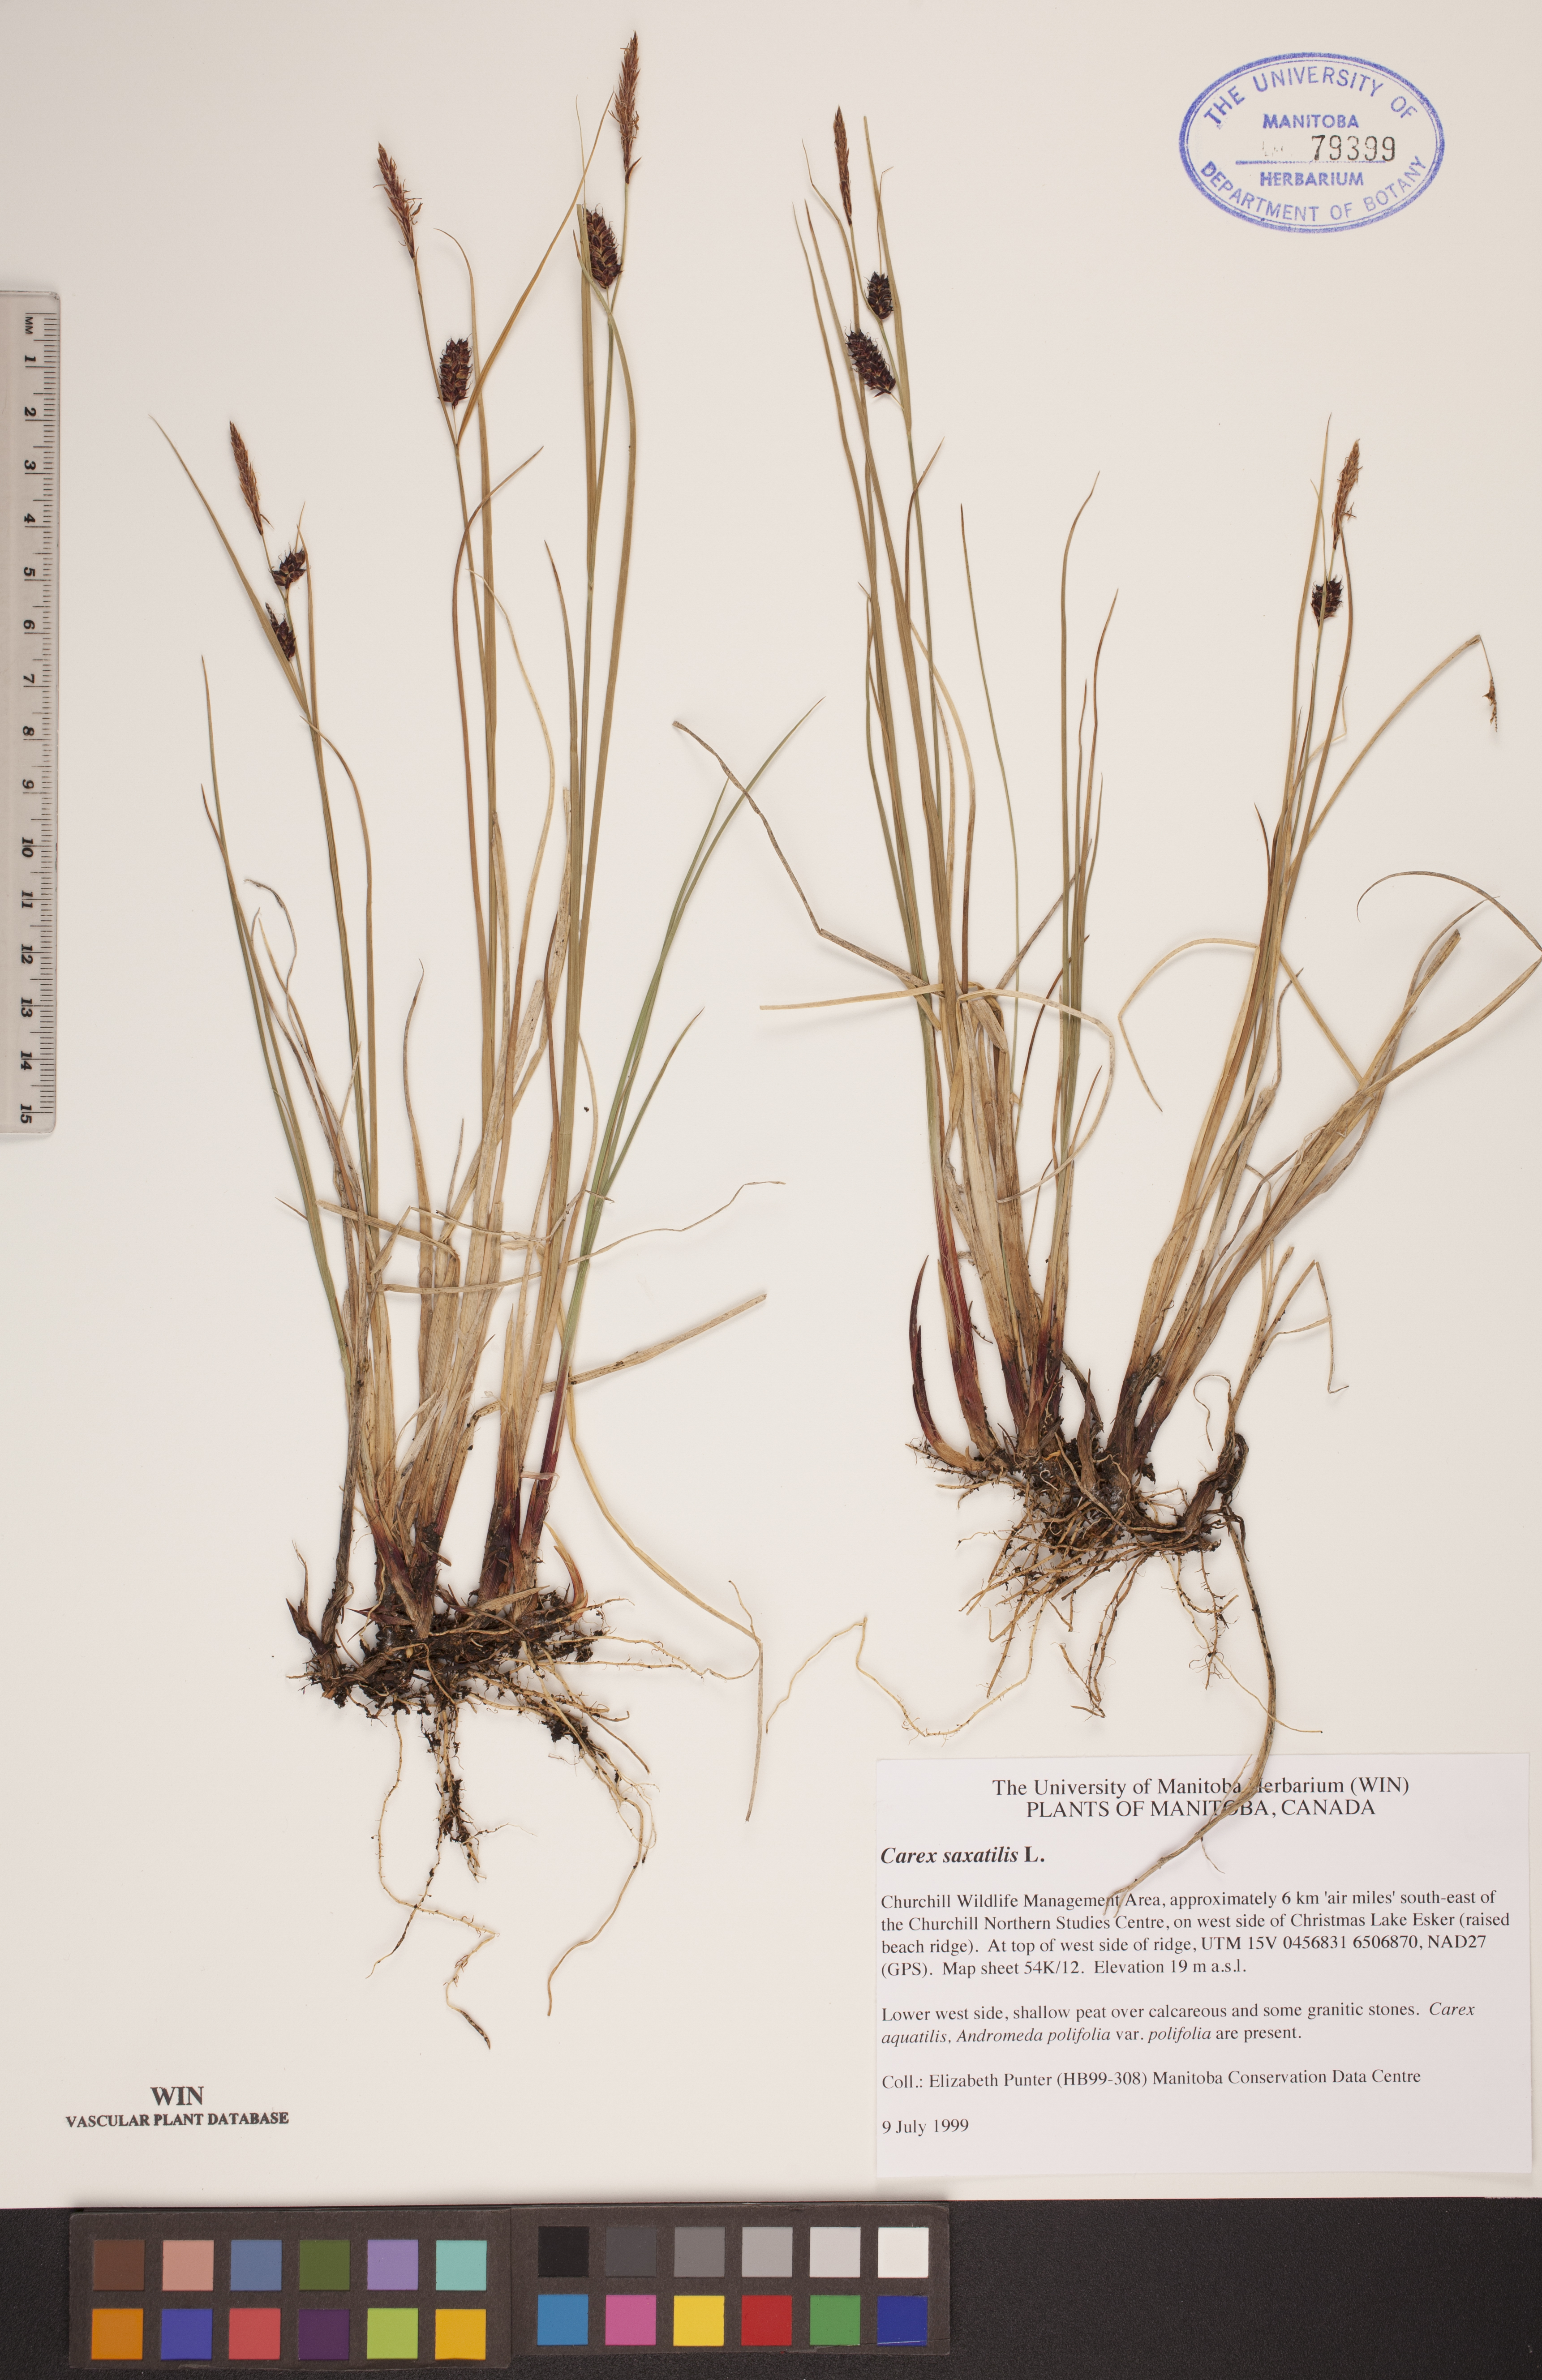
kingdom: Plantae
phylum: Tracheophyta
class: Liliopsida
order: Poales
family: Cyperaceae
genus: Carex
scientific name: Carex saxatilis
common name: Russet sedge
